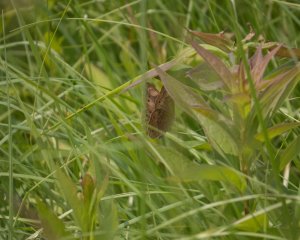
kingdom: Animalia
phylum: Arthropoda
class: Insecta
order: Lepidoptera
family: Nymphalidae
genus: Lethe
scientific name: Lethe eurydice
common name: Eyed Brown
